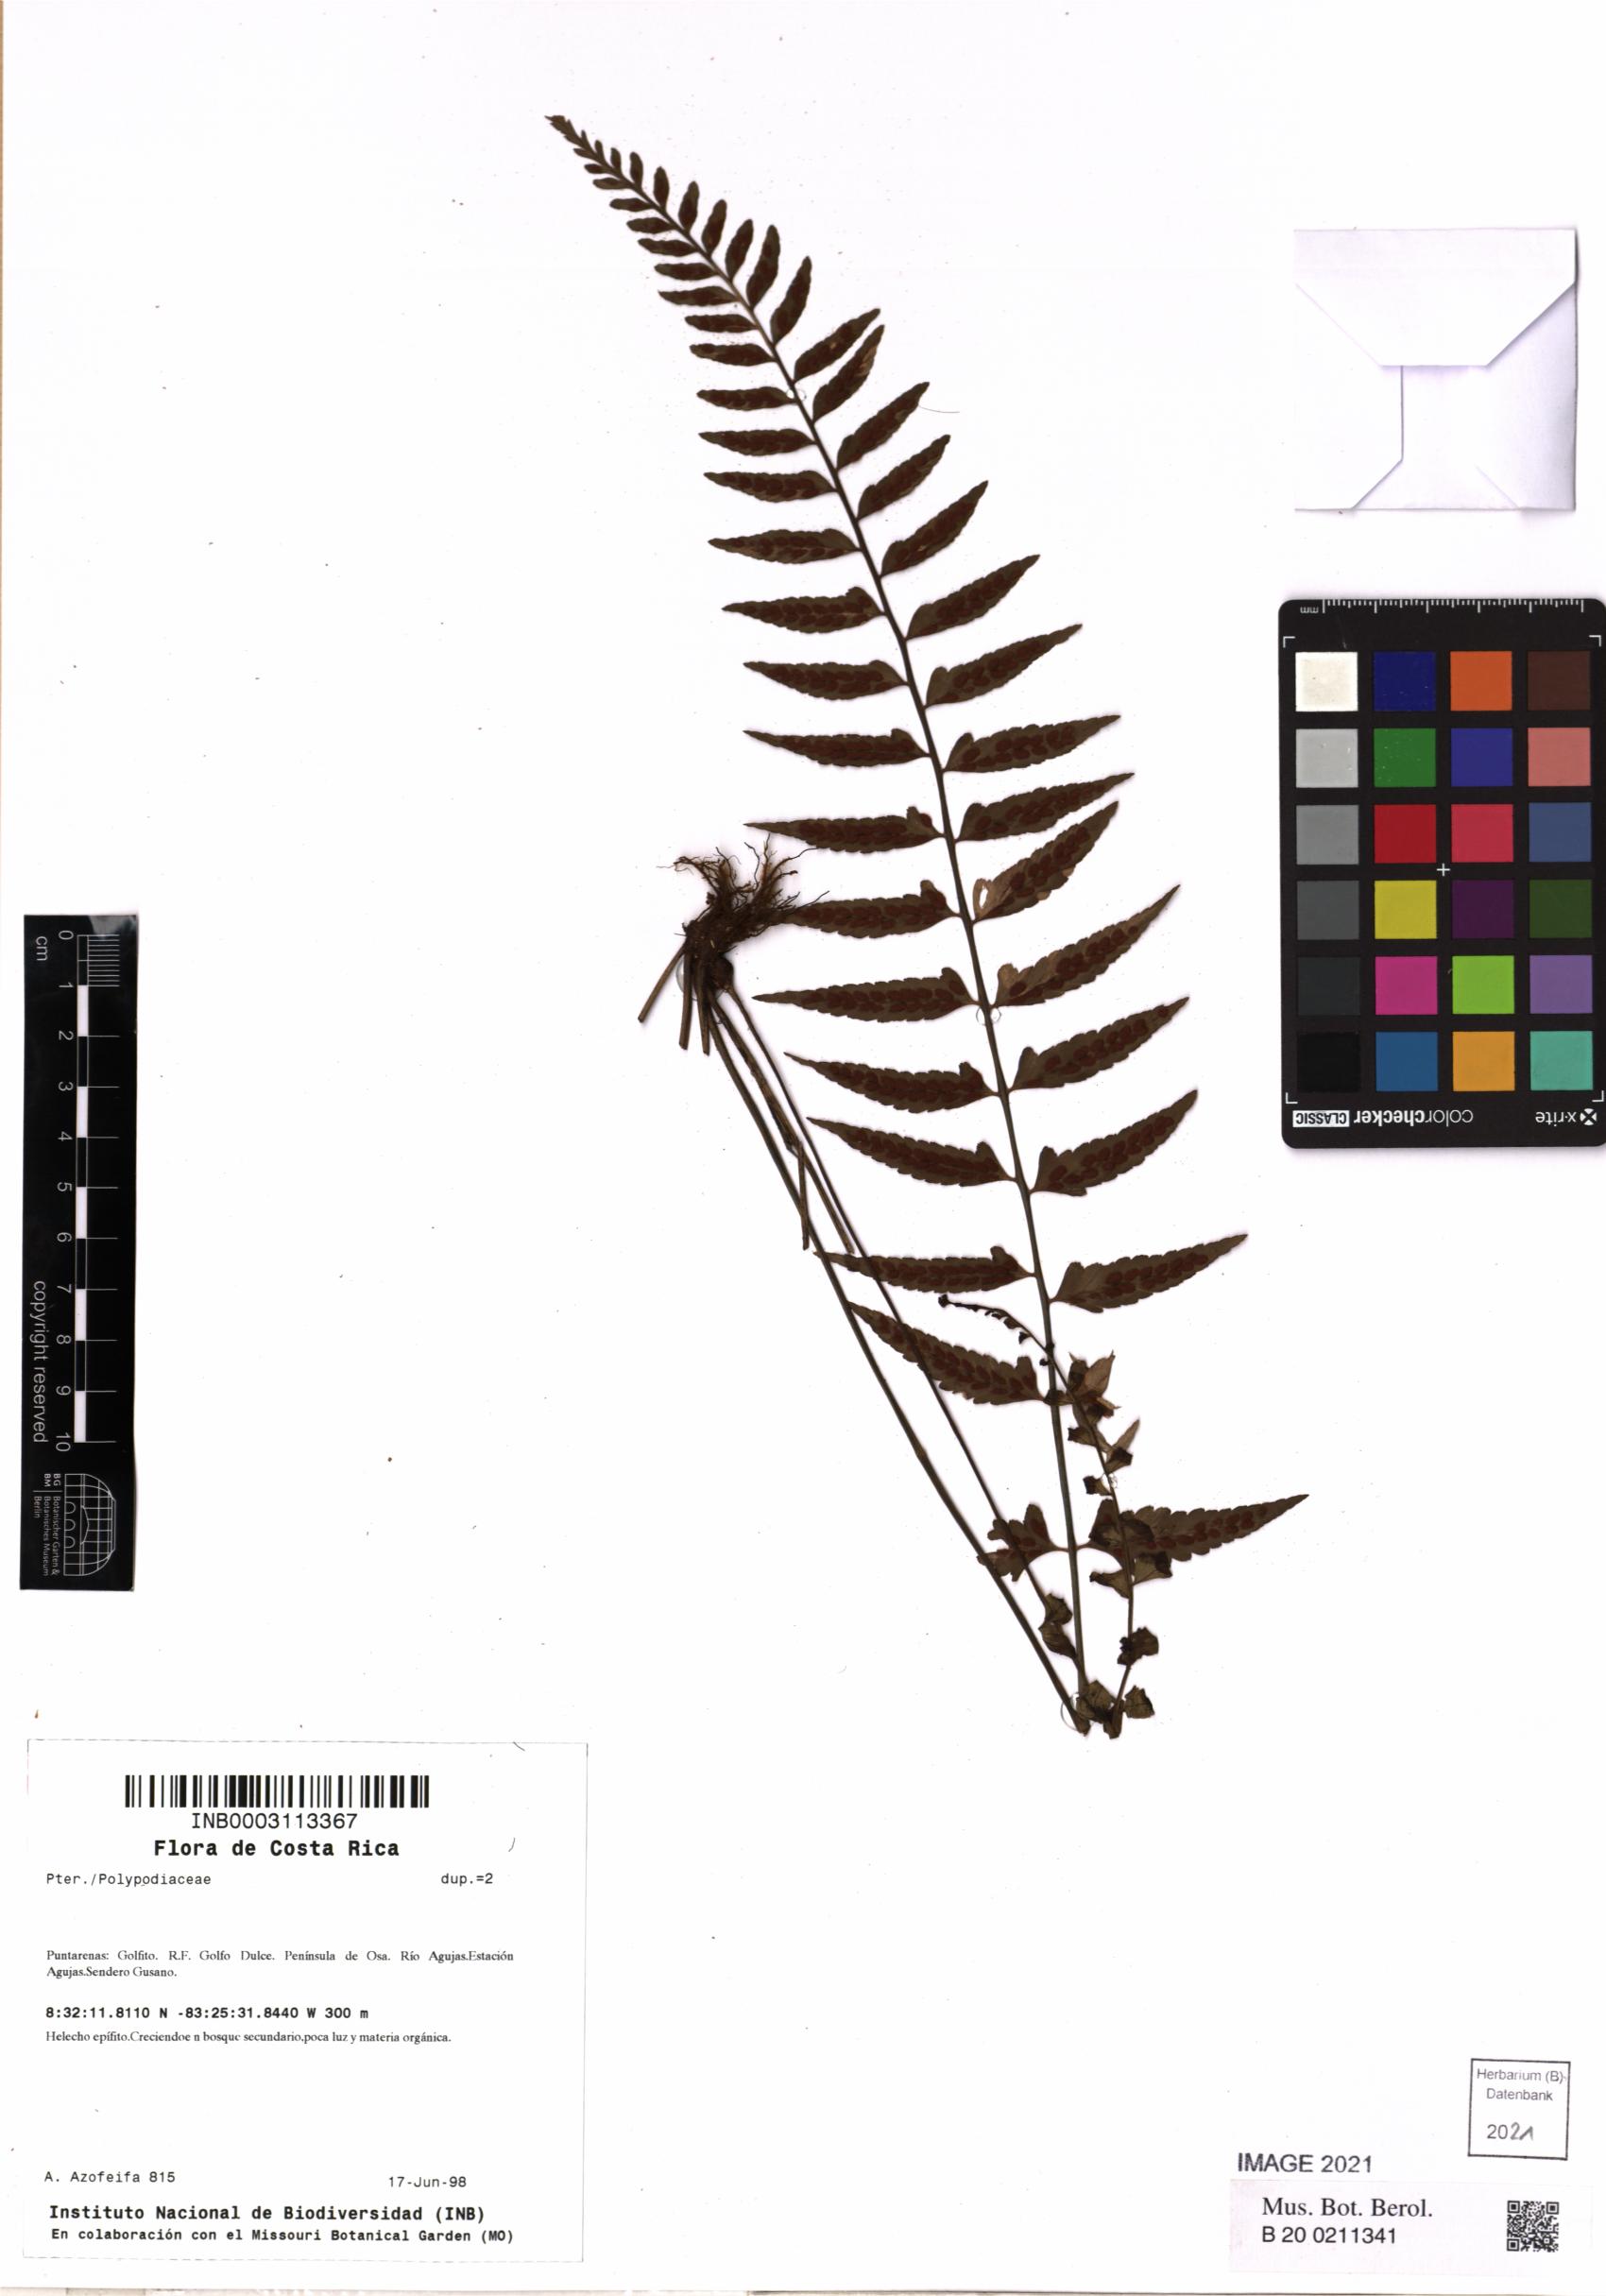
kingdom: Plantae
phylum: Tracheophyta
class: Polypodiopsida
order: Polypodiales
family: Polypodiaceae
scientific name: Polypodiaceae
